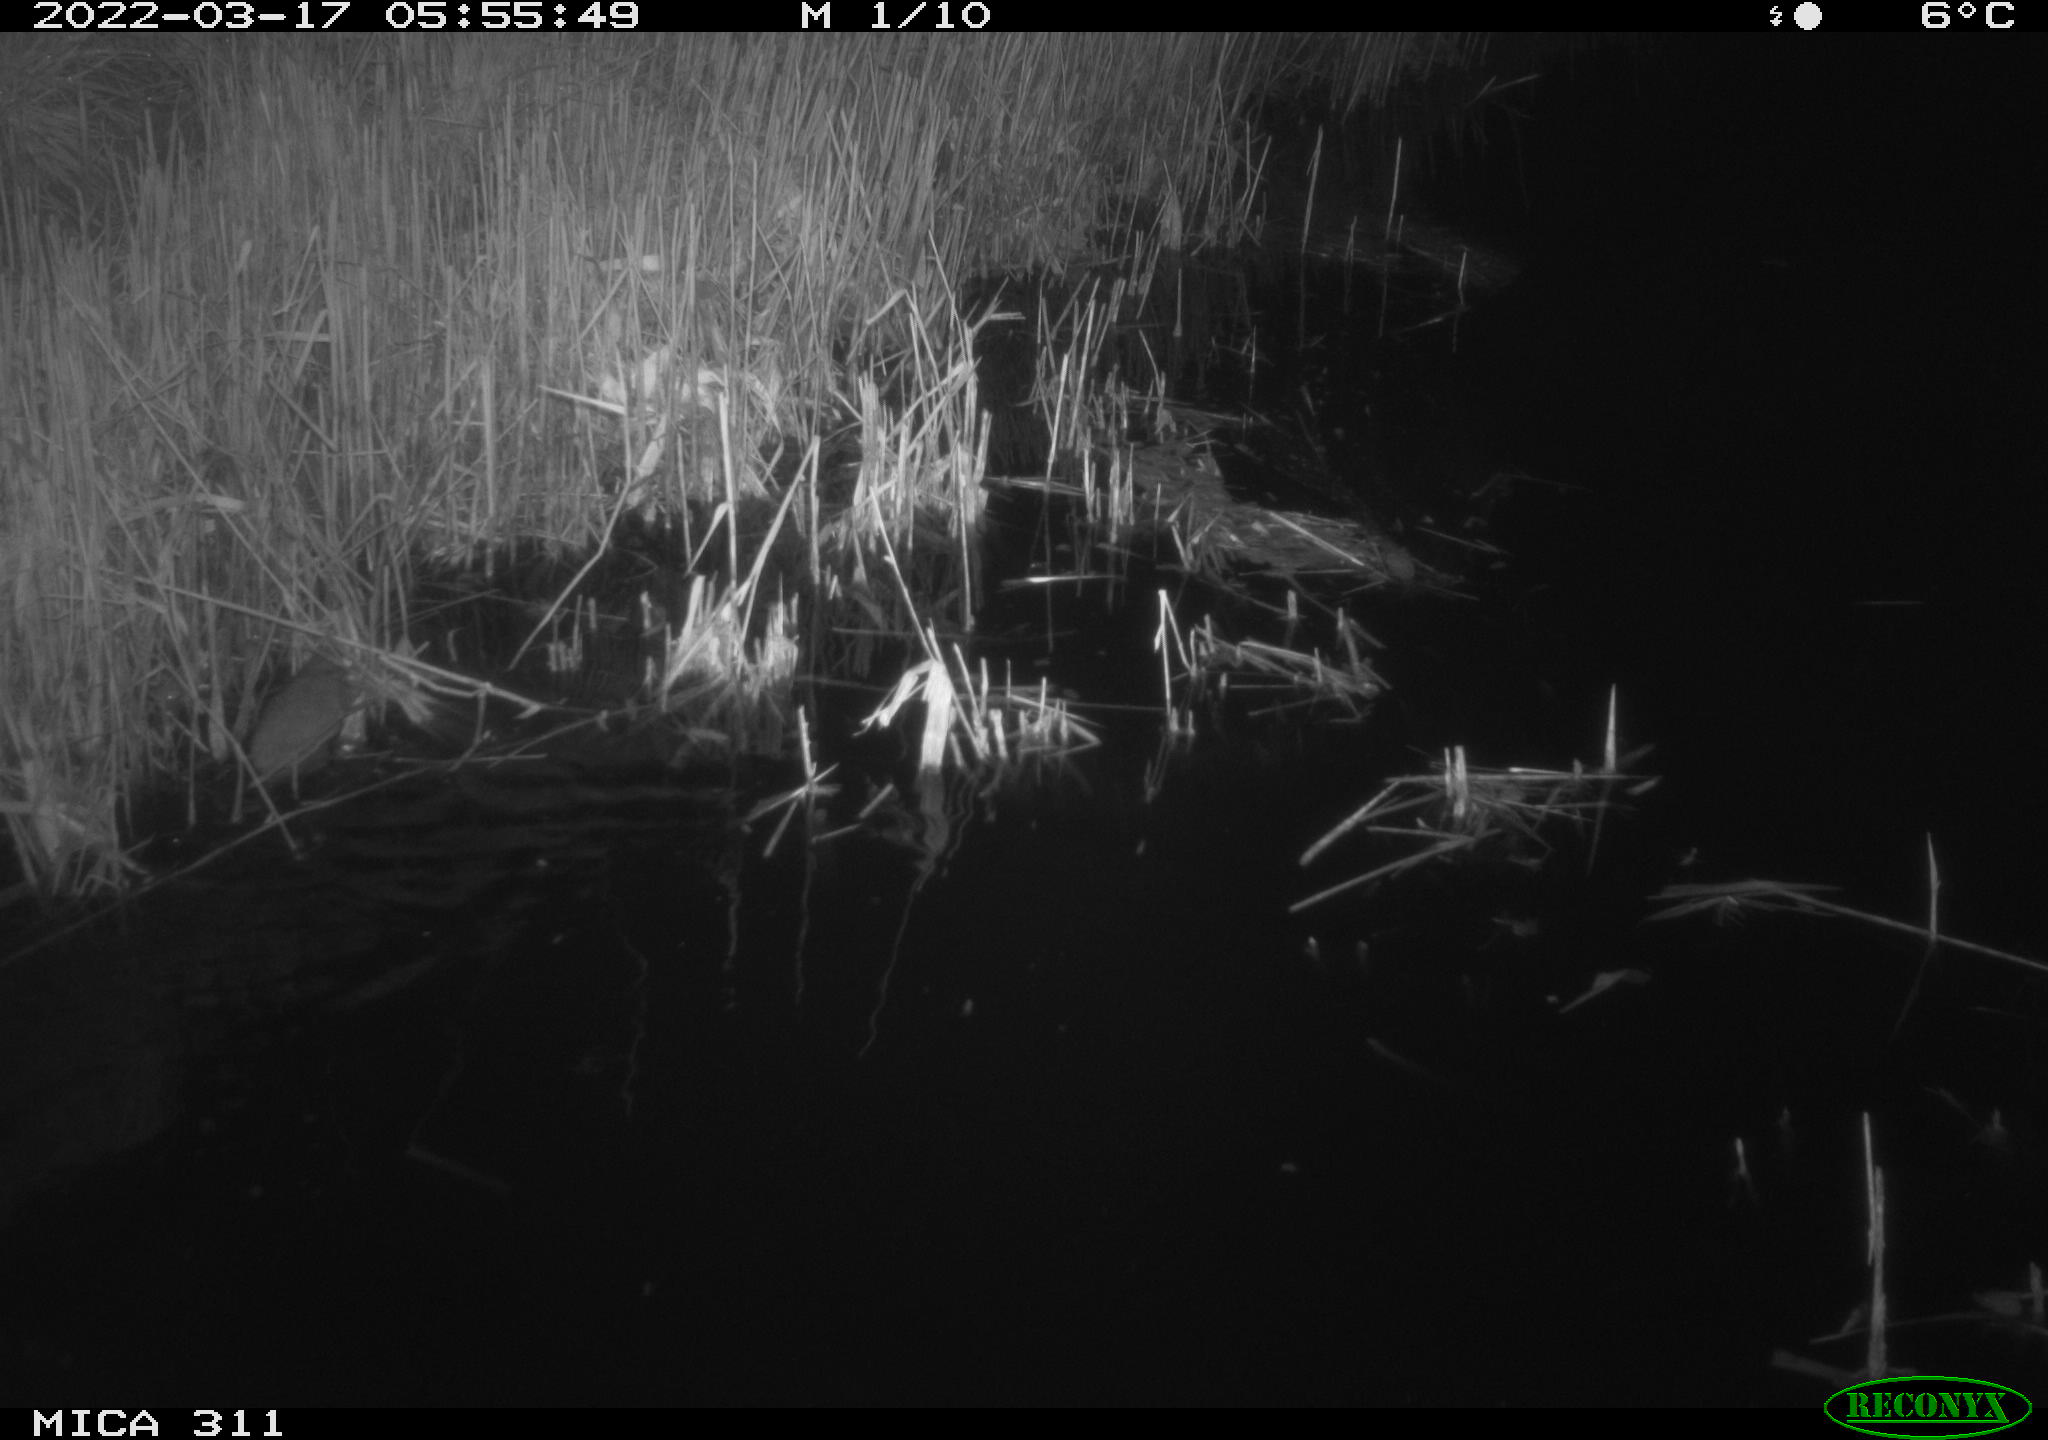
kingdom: Animalia
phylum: Chordata
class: Mammalia
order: Rodentia
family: Muridae
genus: Rattus
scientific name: Rattus norvegicus
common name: Brown rat
